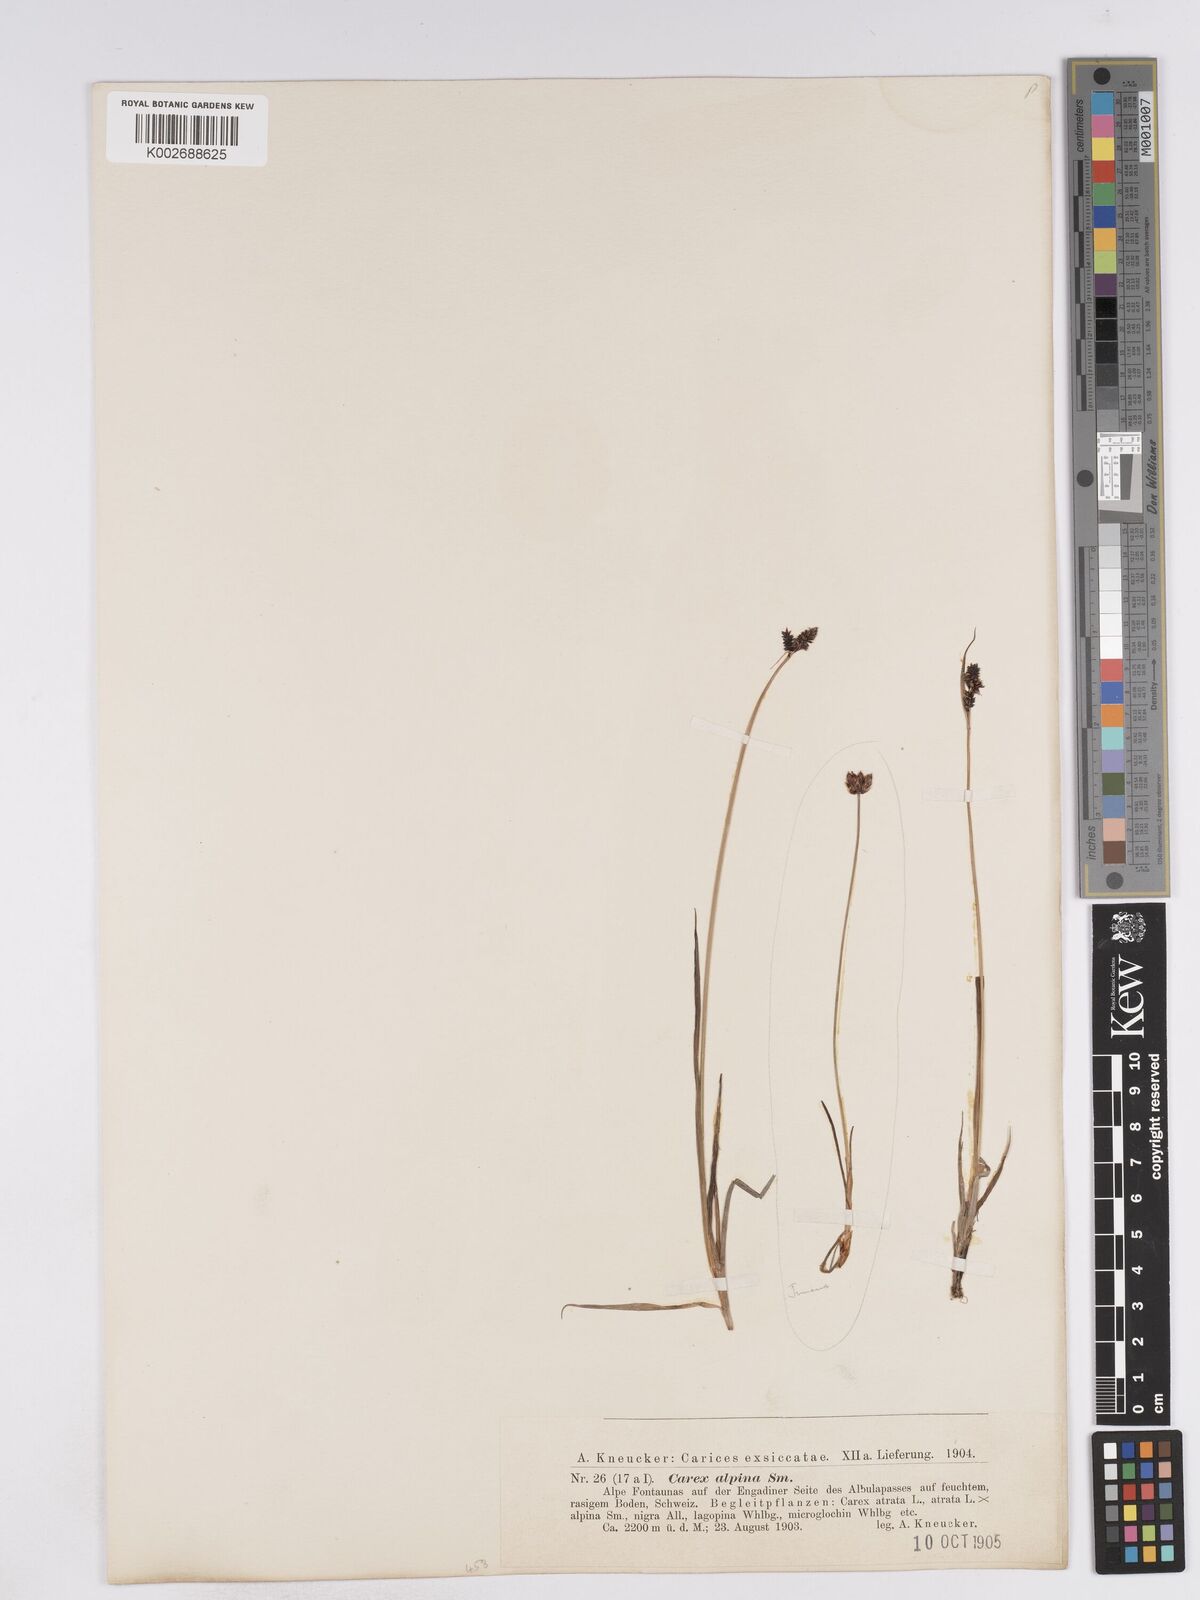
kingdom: Plantae
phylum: Tracheophyta
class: Liliopsida
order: Poales
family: Cyperaceae
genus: Carex
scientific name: Carex norvegica
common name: Close-headed alpine-sedge
